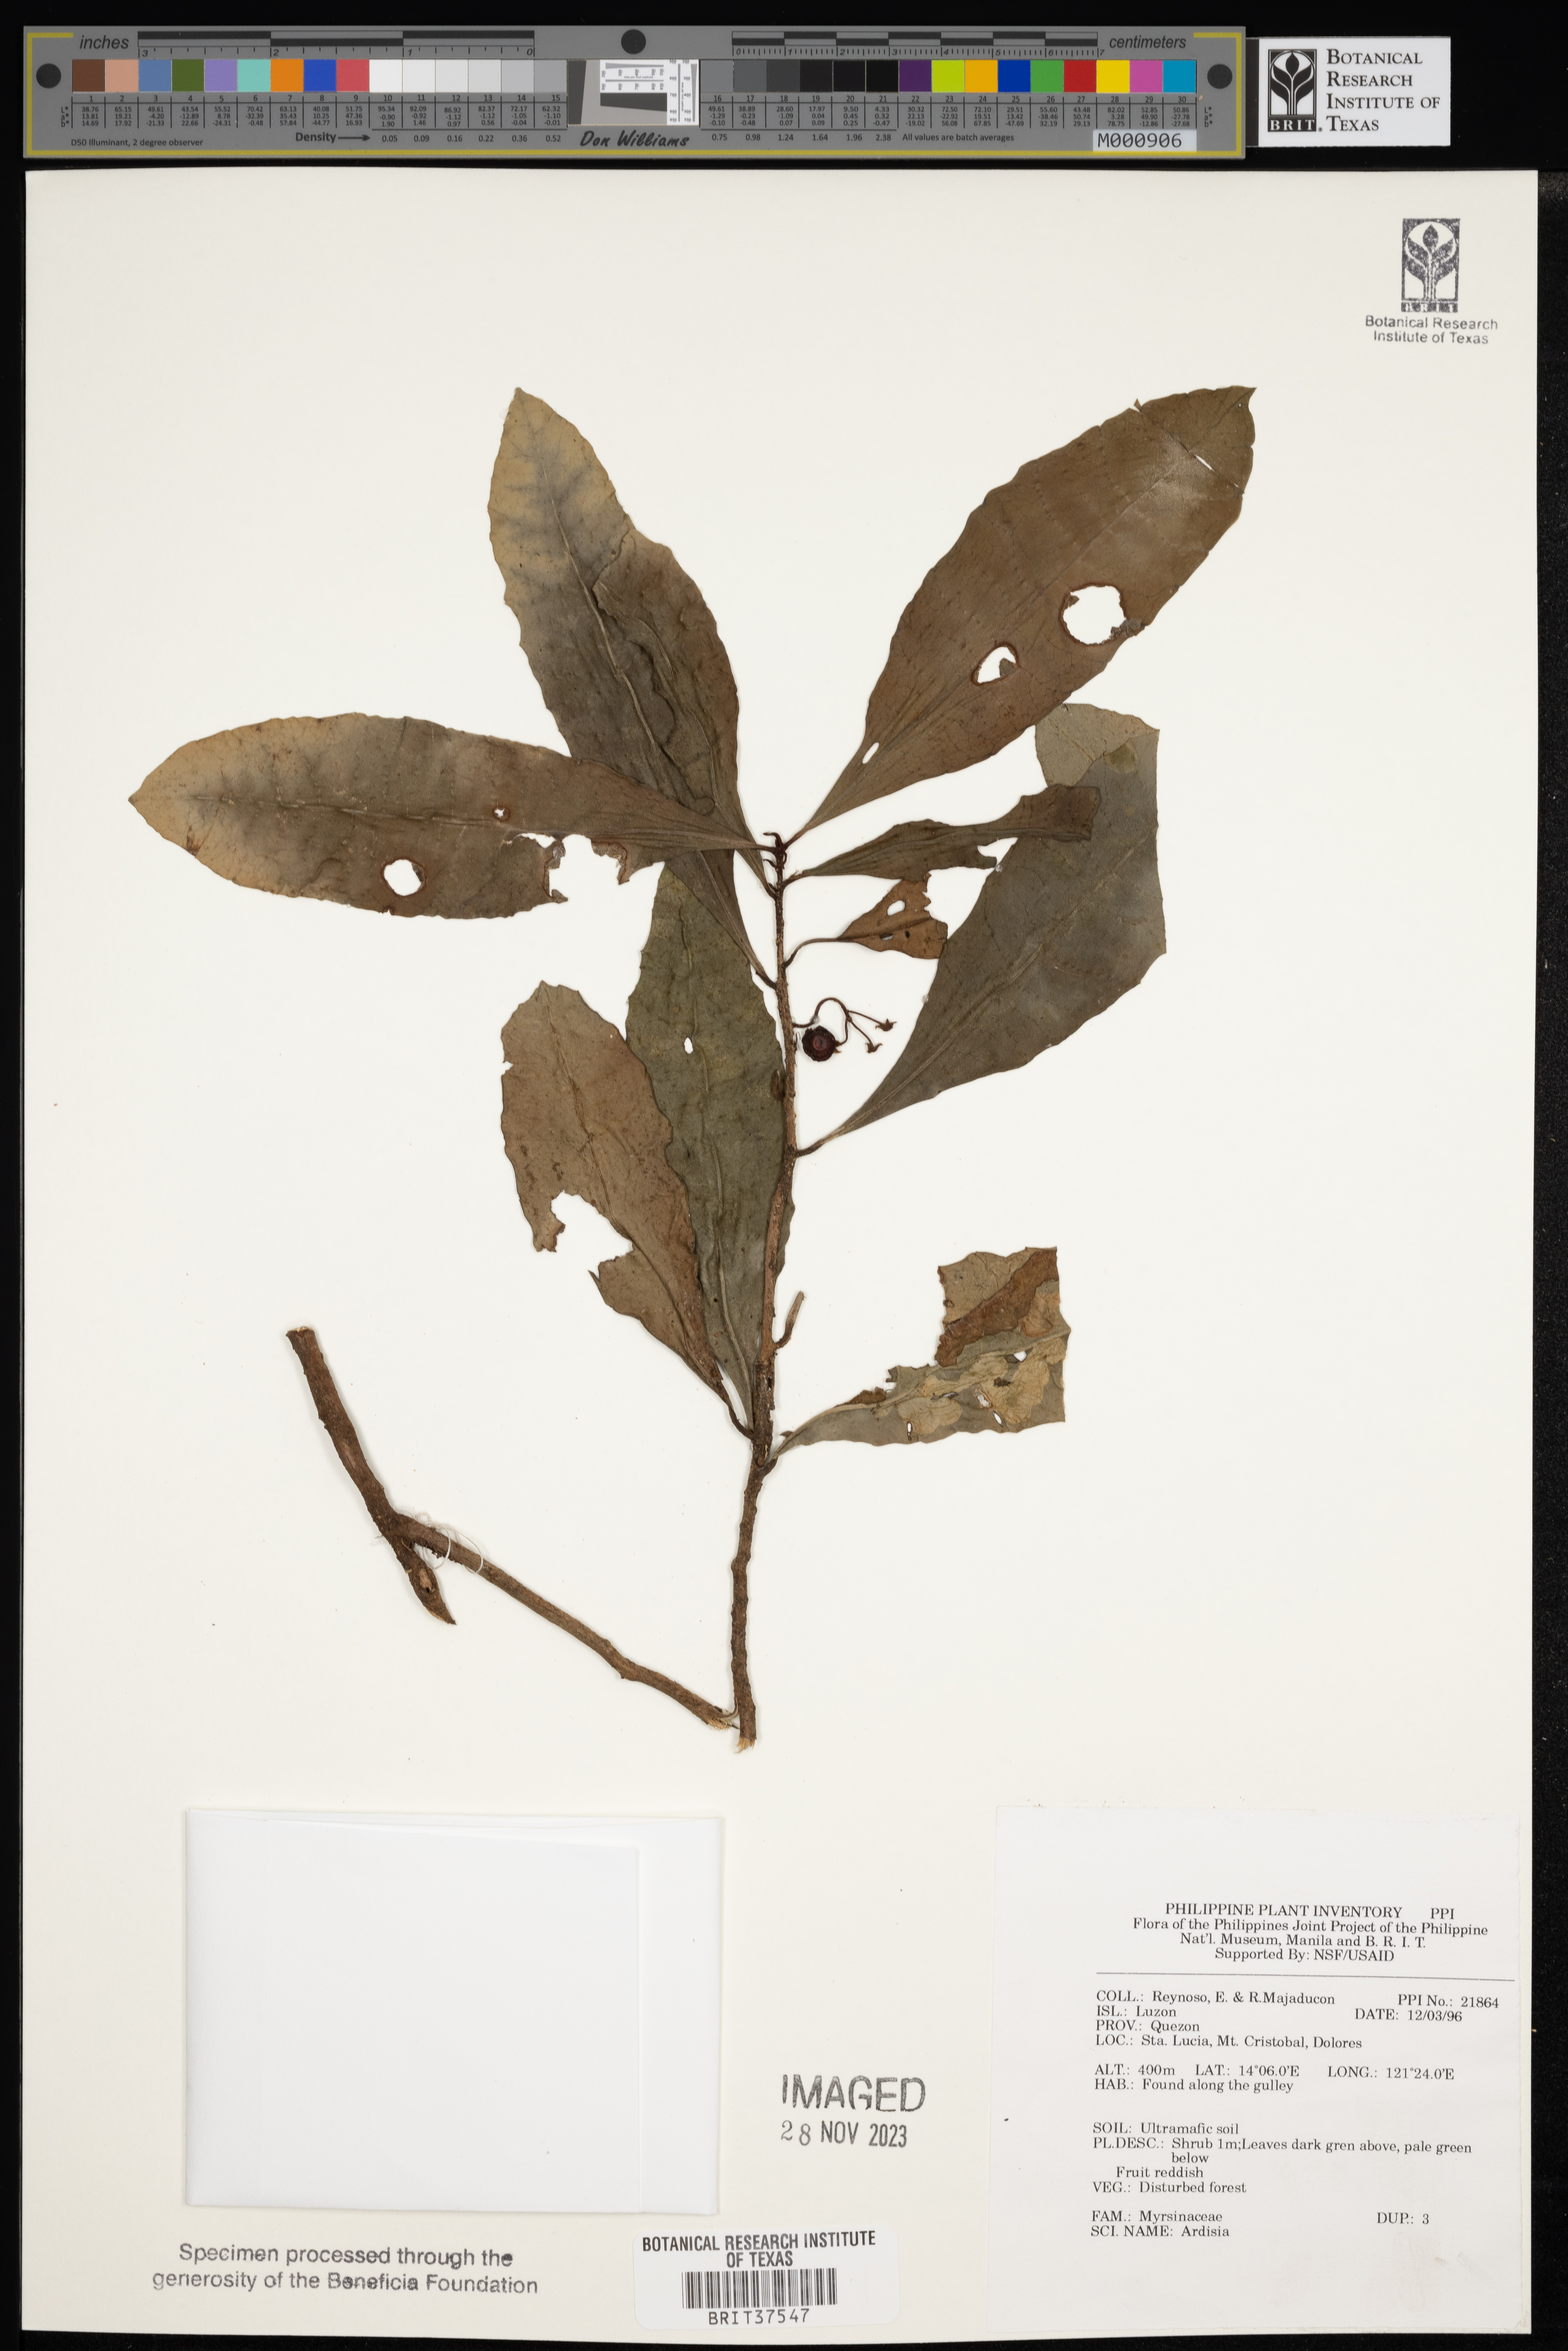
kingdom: Plantae
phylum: Tracheophyta
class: Magnoliopsida
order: Ericales
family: Primulaceae
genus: Ardisia
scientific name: Ardisia
